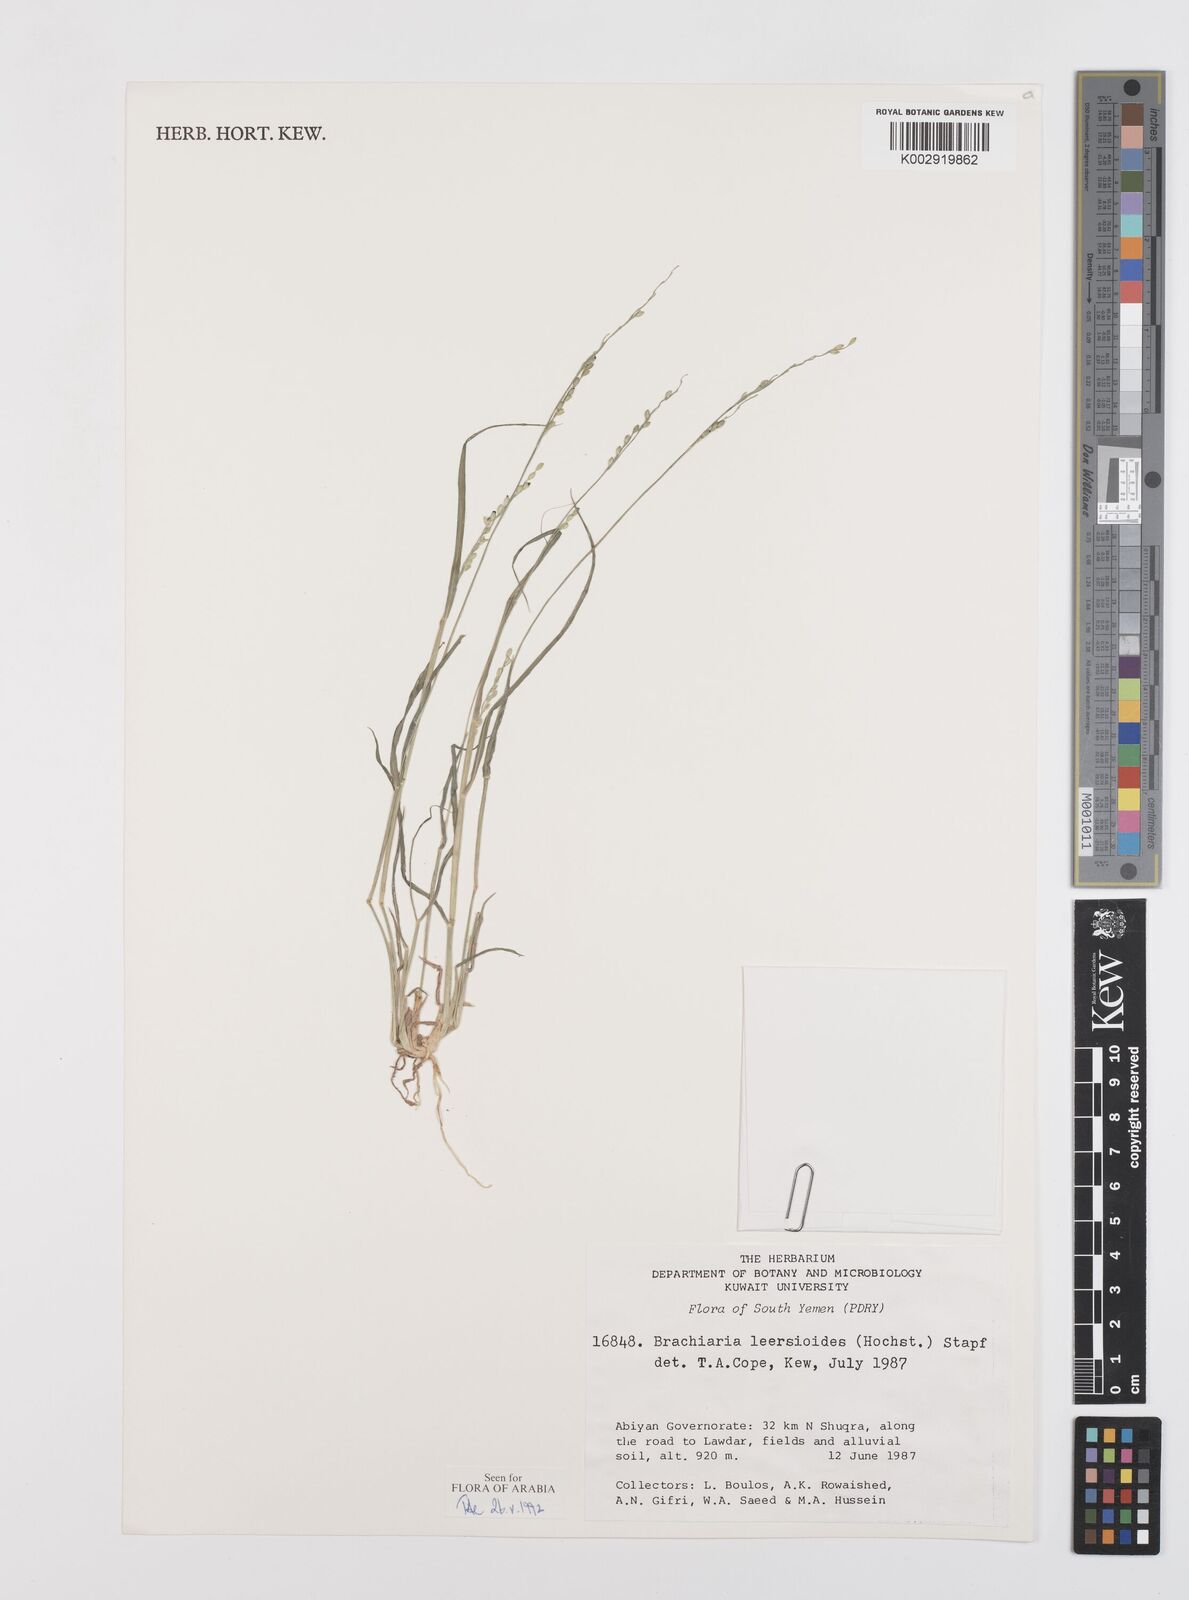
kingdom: Plantae
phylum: Tracheophyta
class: Liliopsida
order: Poales
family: Poaceae
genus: Urochloa
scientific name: Urochloa leersioides
